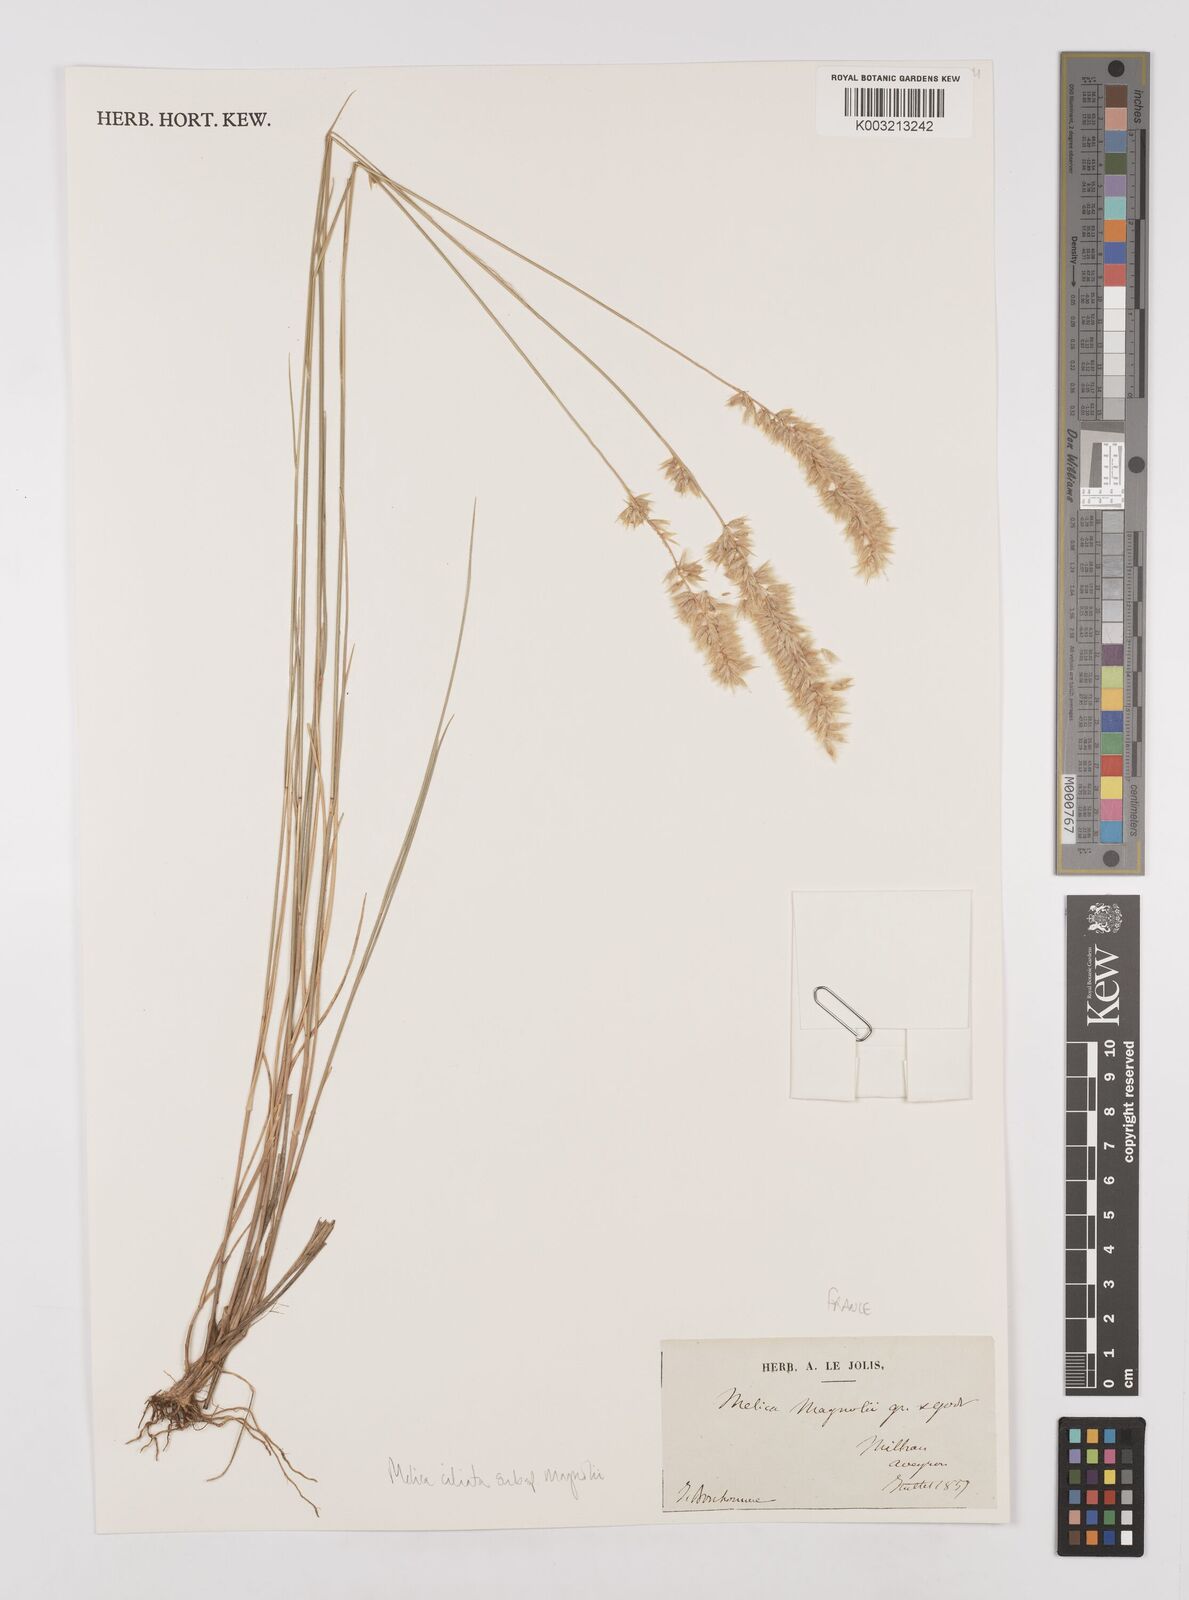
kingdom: Plantae
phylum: Tracheophyta
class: Liliopsida
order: Poales
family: Poaceae
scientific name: Poaceae
